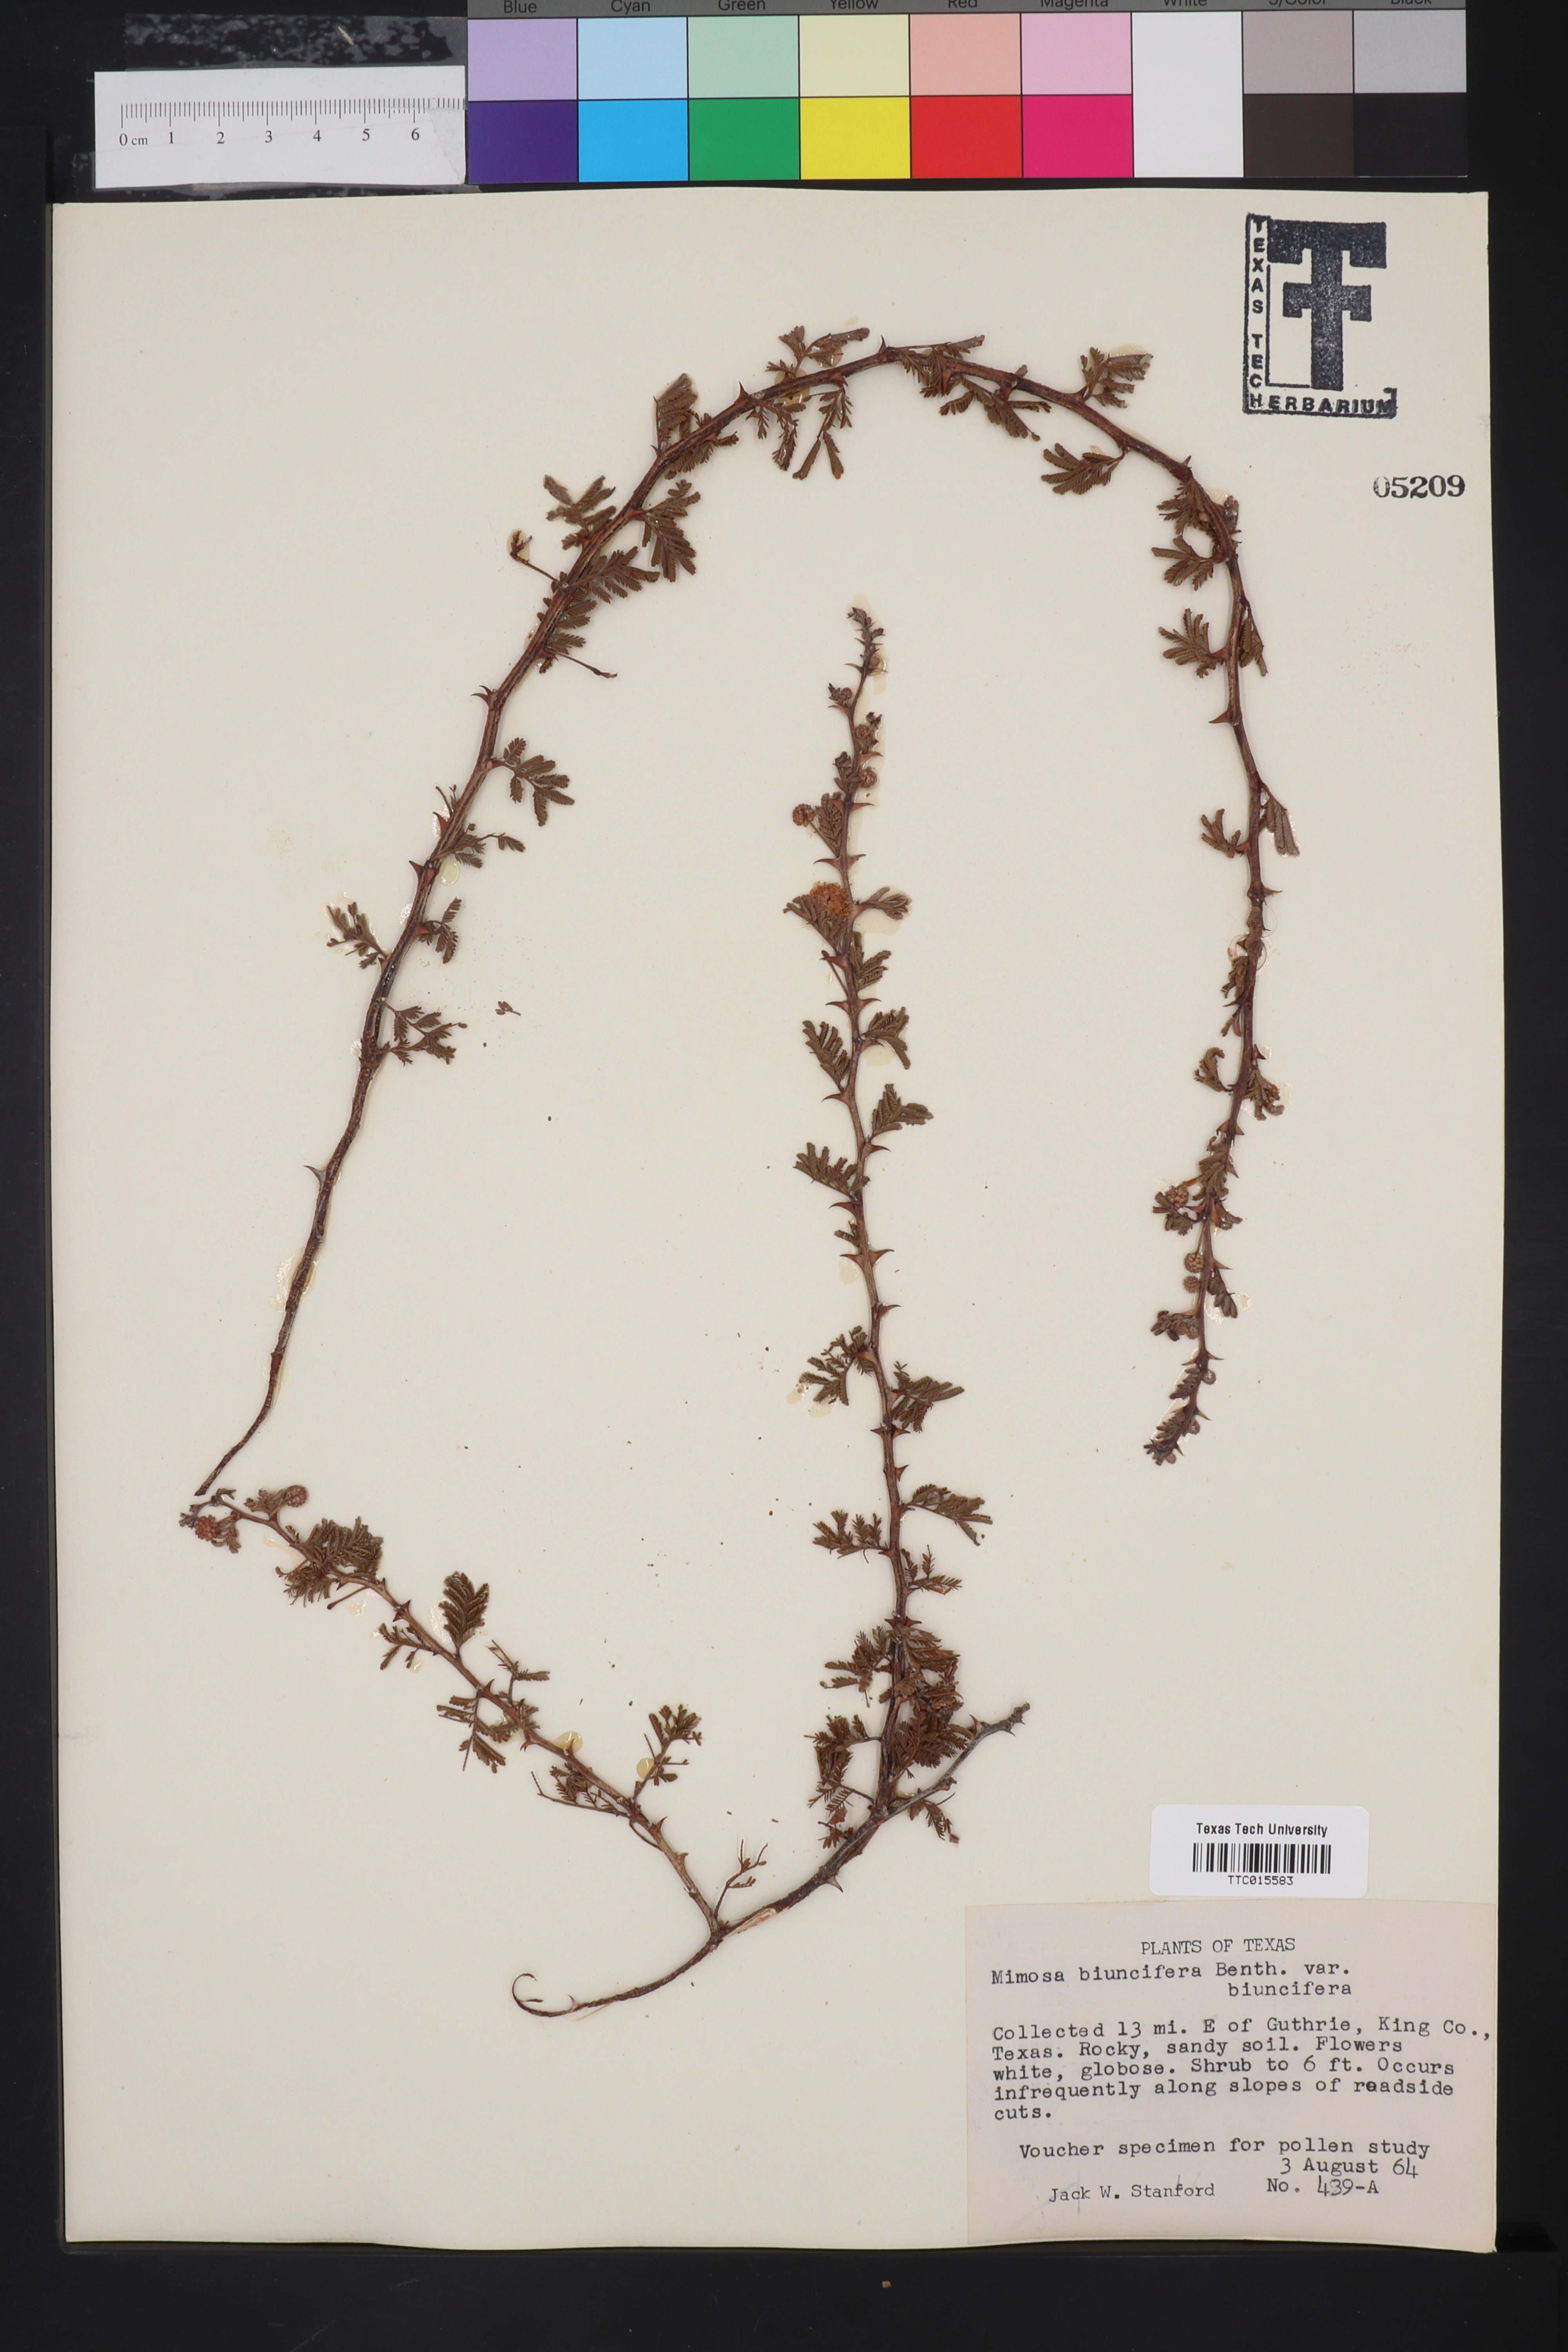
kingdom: Plantae
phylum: Tracheophyta
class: Magnoliopsida
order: Fabales
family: Fabaceae
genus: Mimosa
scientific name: Mimosa biuncifera
